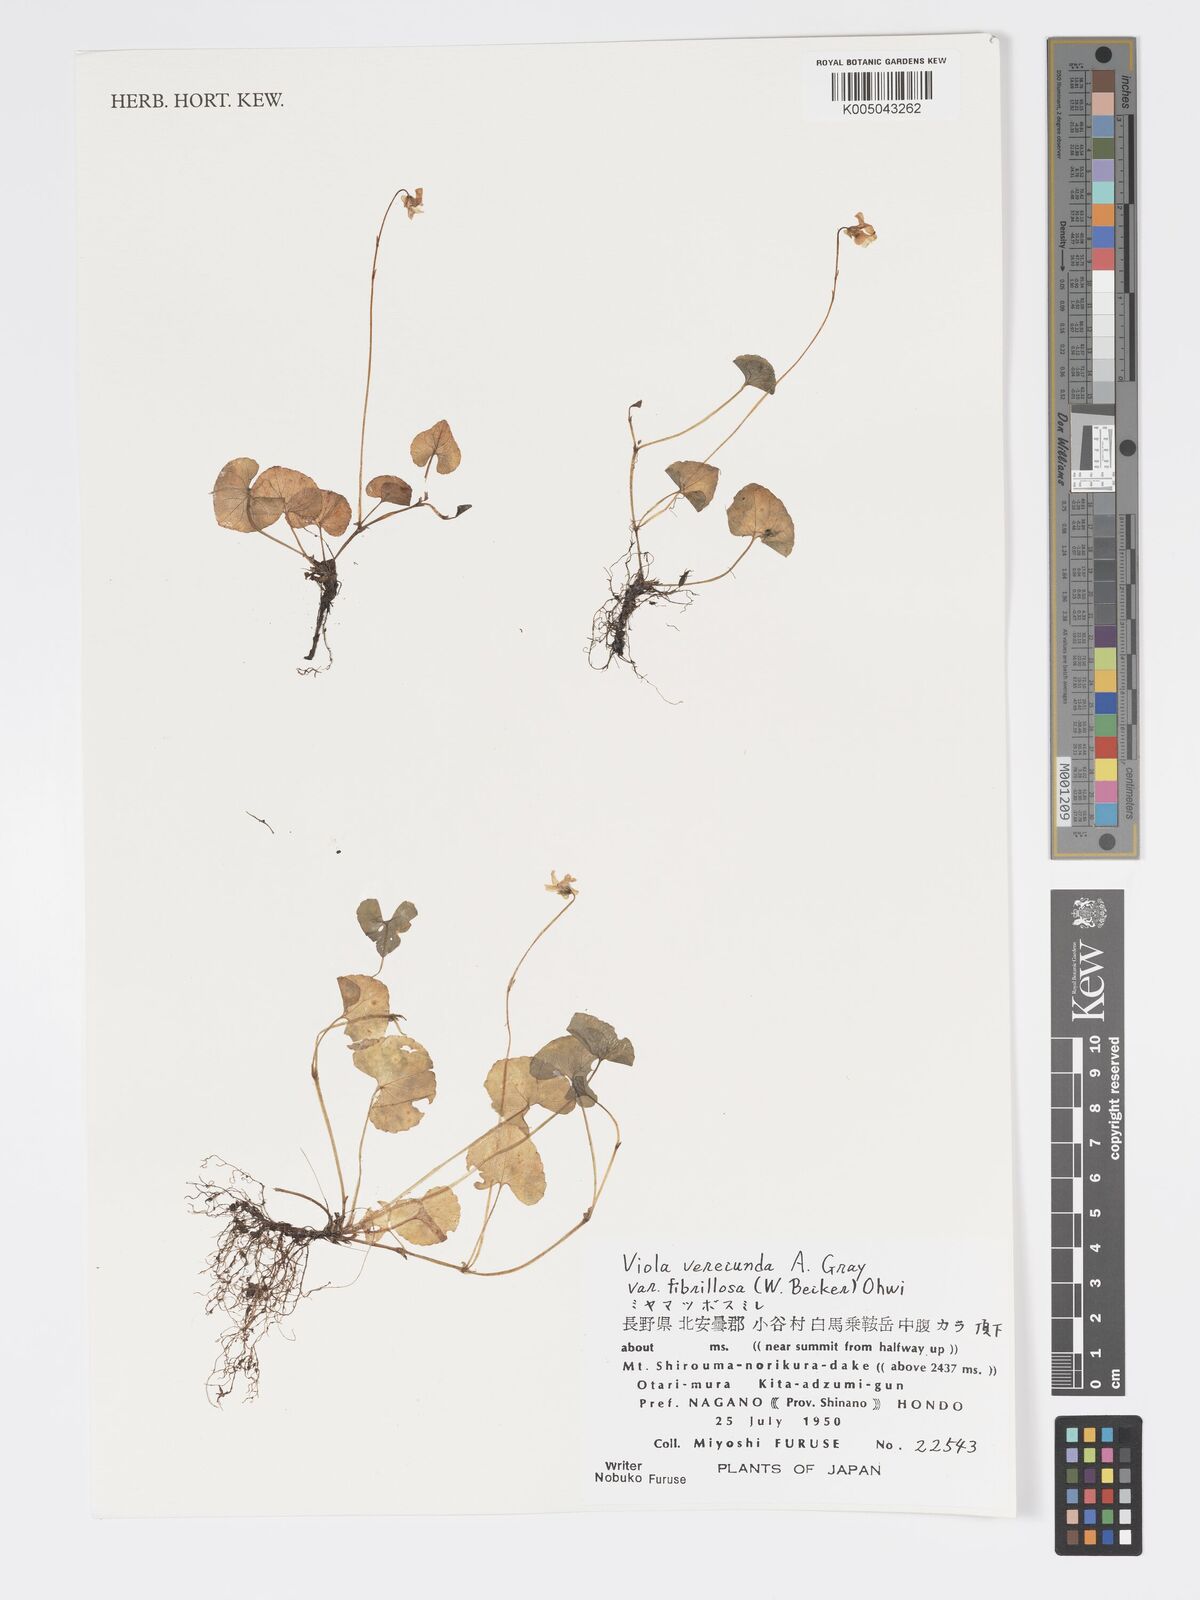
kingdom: Plantae
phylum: Tracheophyta
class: Magnoliopsida
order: Malpighiales
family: Violaceae
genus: Viola
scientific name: Viola hamiltoniana
